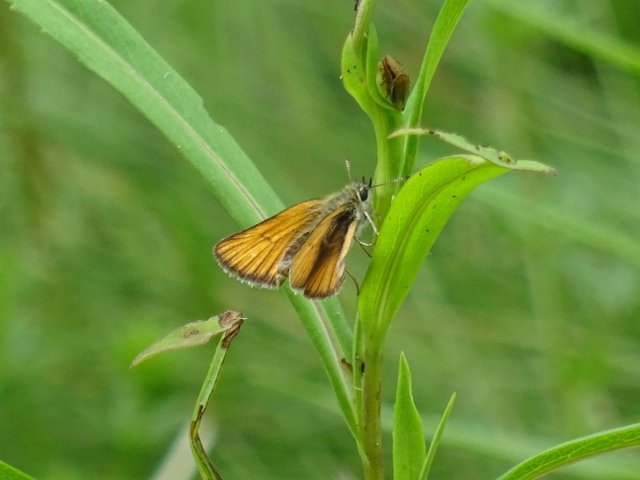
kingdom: Animalia
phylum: Arthropoda
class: Insecta
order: Lepidoptera
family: Hesperiidae
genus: Thymelicus
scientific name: Thymelicus lineola
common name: European Skipper
